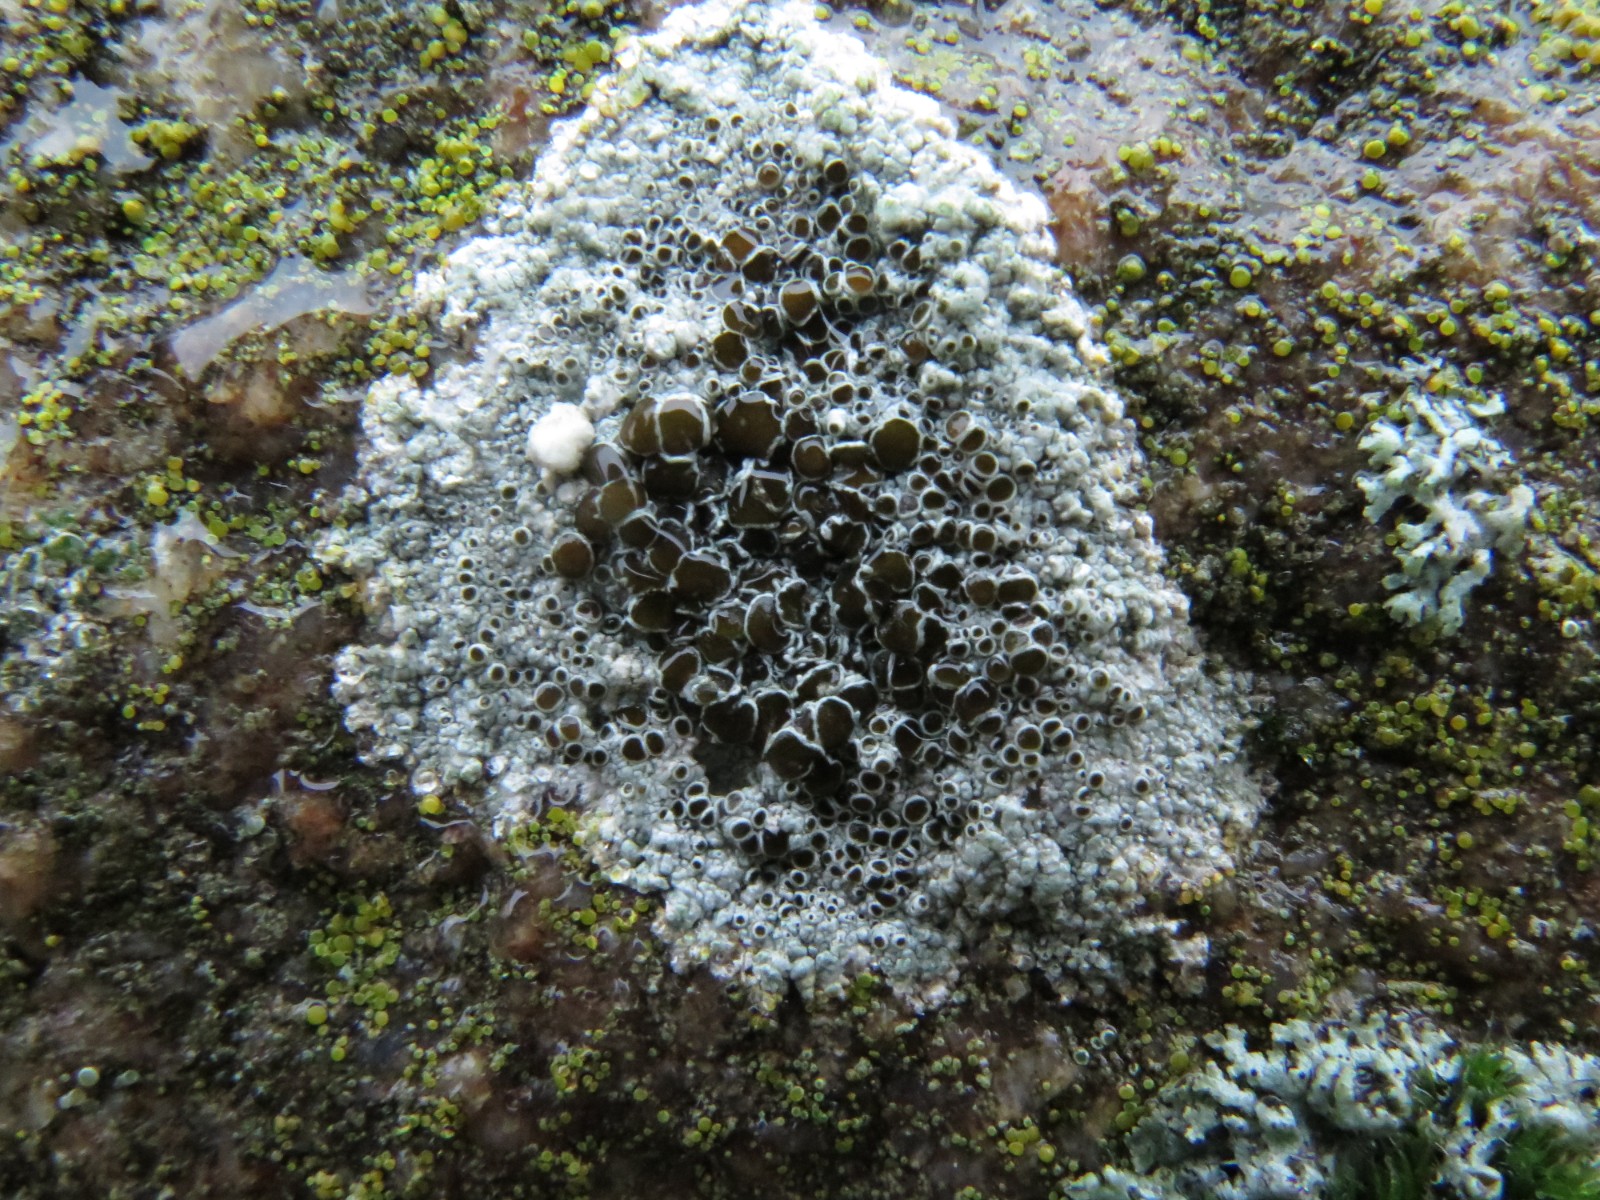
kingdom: Fungi
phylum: Ascomycota
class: Lecanoromycetes
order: Lecanorales
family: Lecanoraceae
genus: Lecanora
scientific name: Lecanora campestris
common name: mur-kantskivelav
